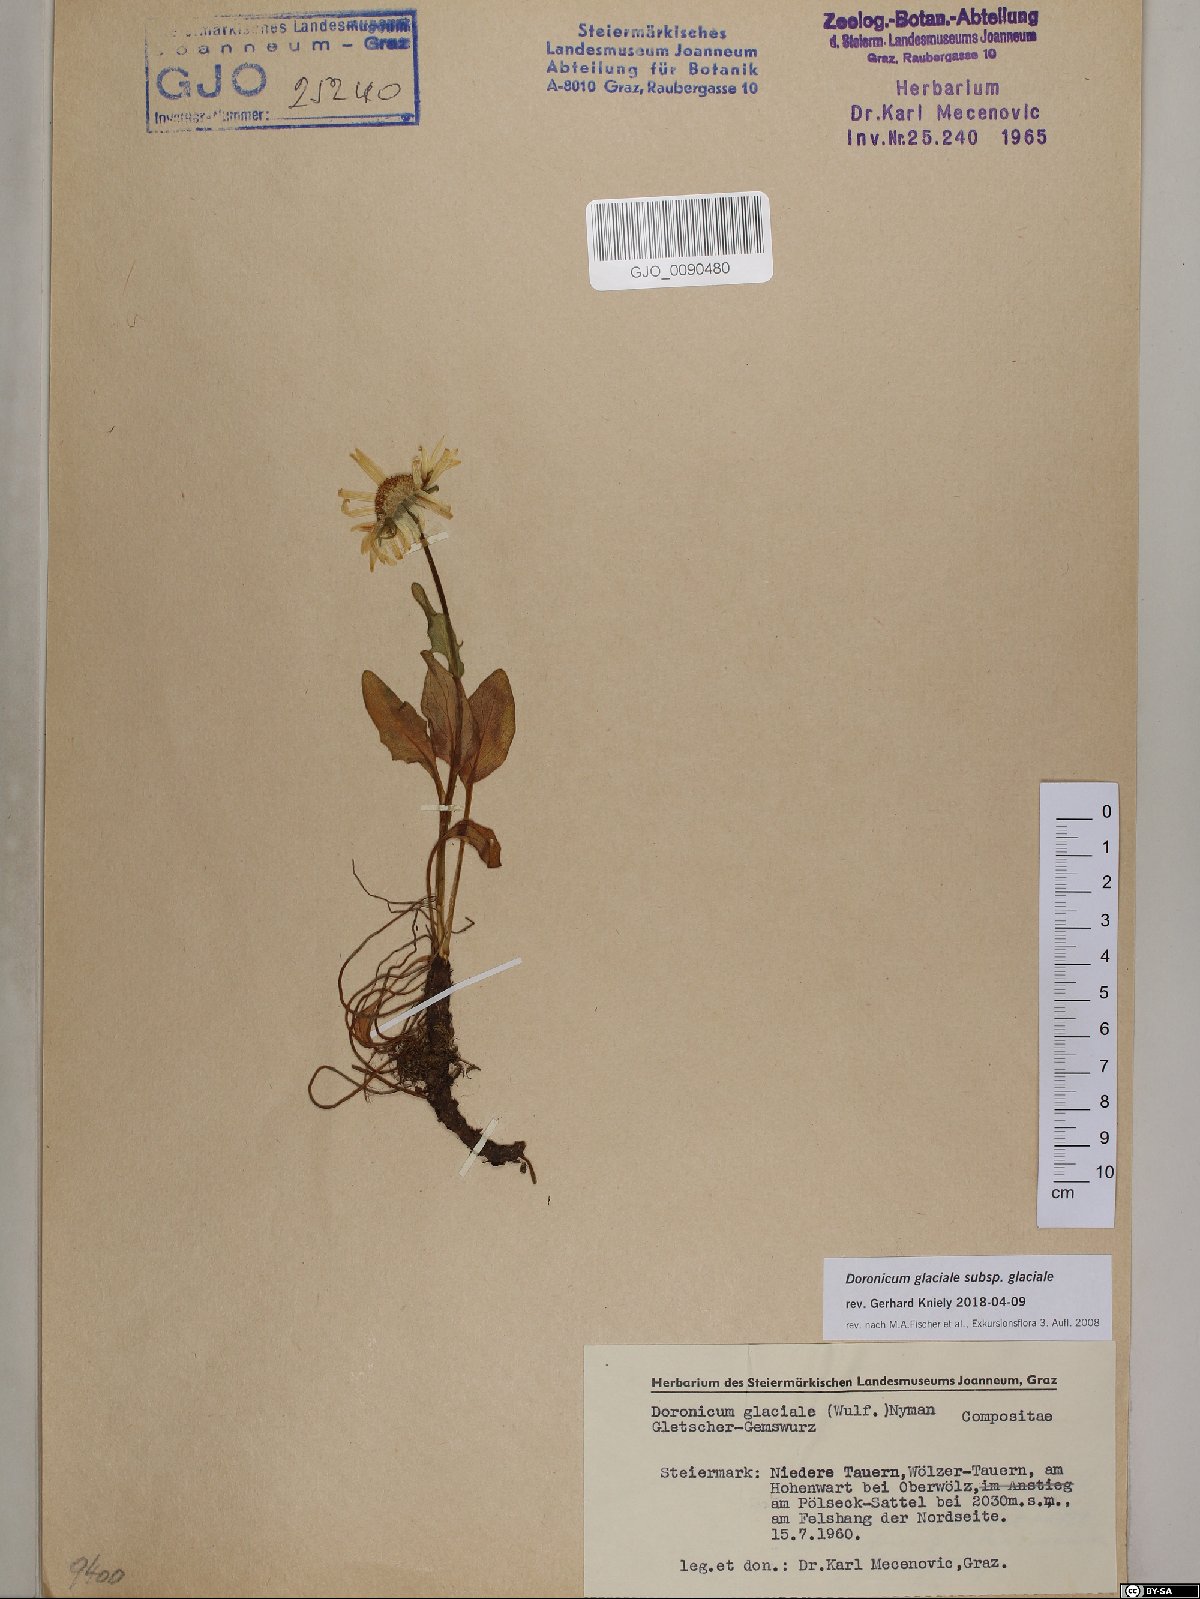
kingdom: Plantae
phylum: Tracheophyta
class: Magnoliopsida
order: Asterales
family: Asteraceae
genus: Doronicum
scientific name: Doronicum glaciale
